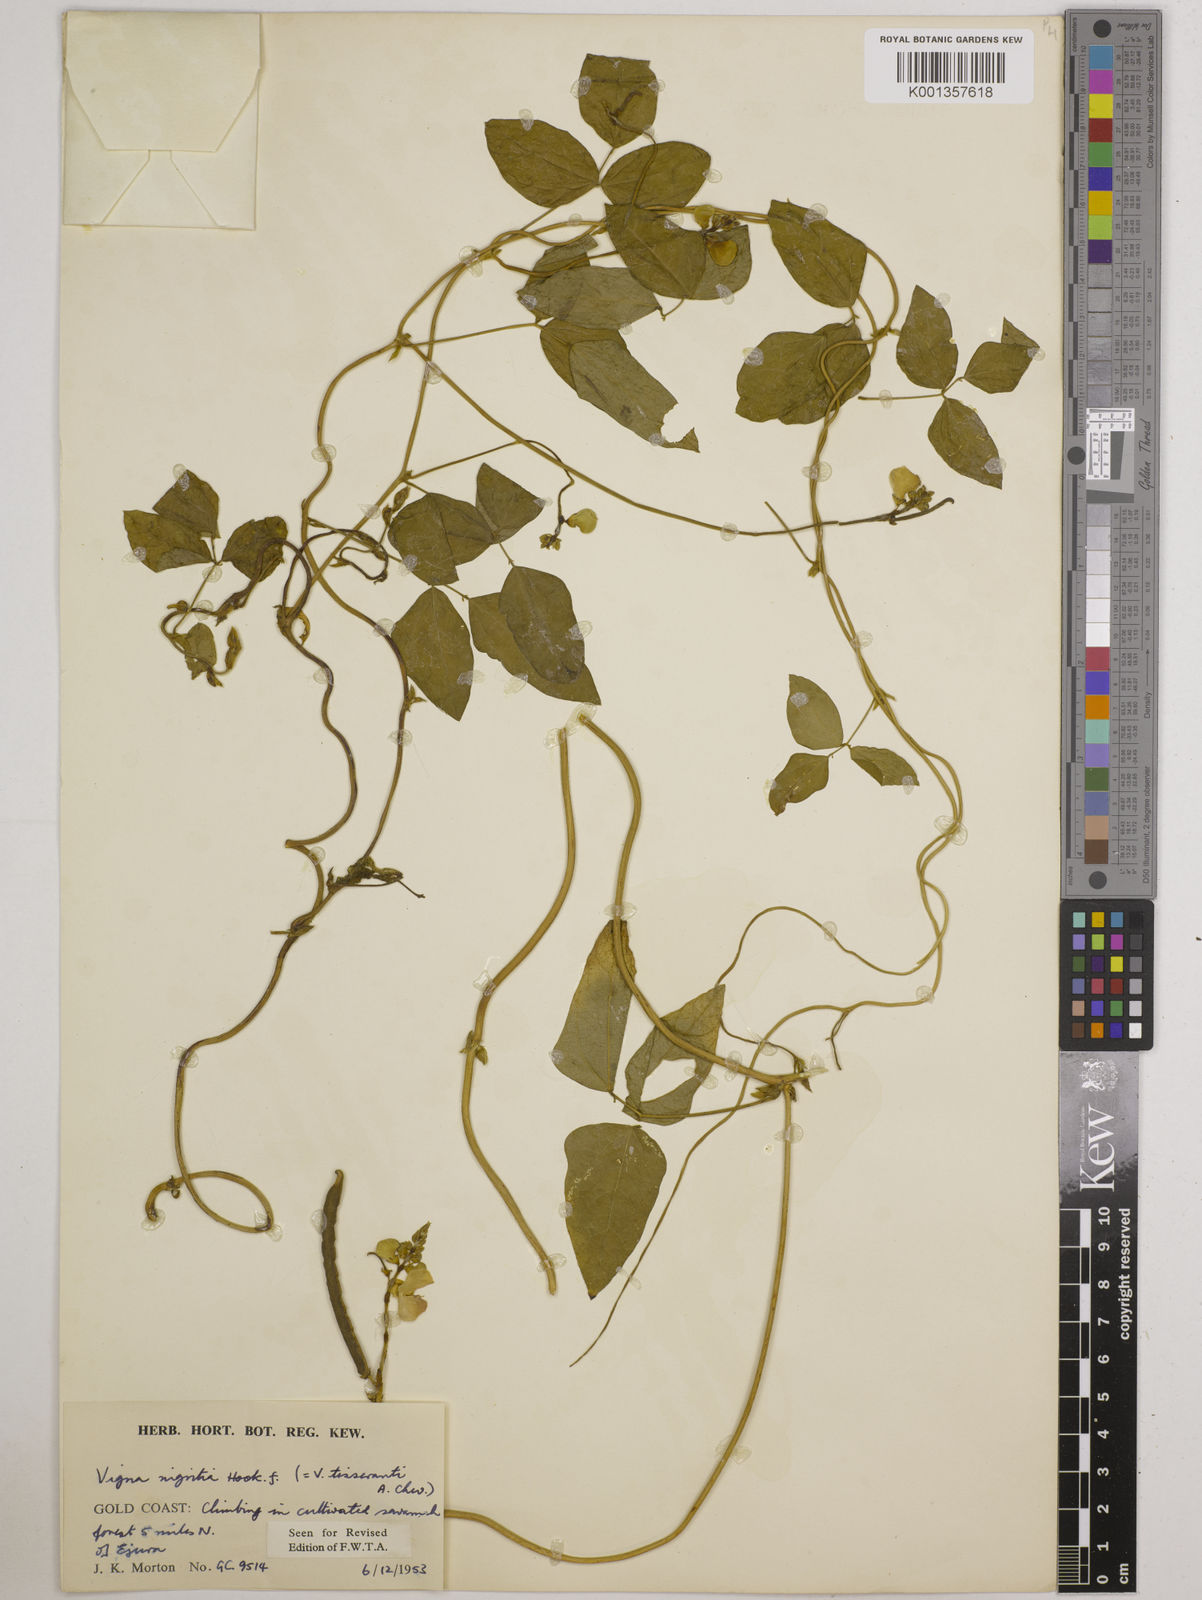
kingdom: Plantae
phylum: Tracheophyta
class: Magnoliopsida
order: Fabales
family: Fabaceae
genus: Vigna
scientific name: Vigna nigritia
